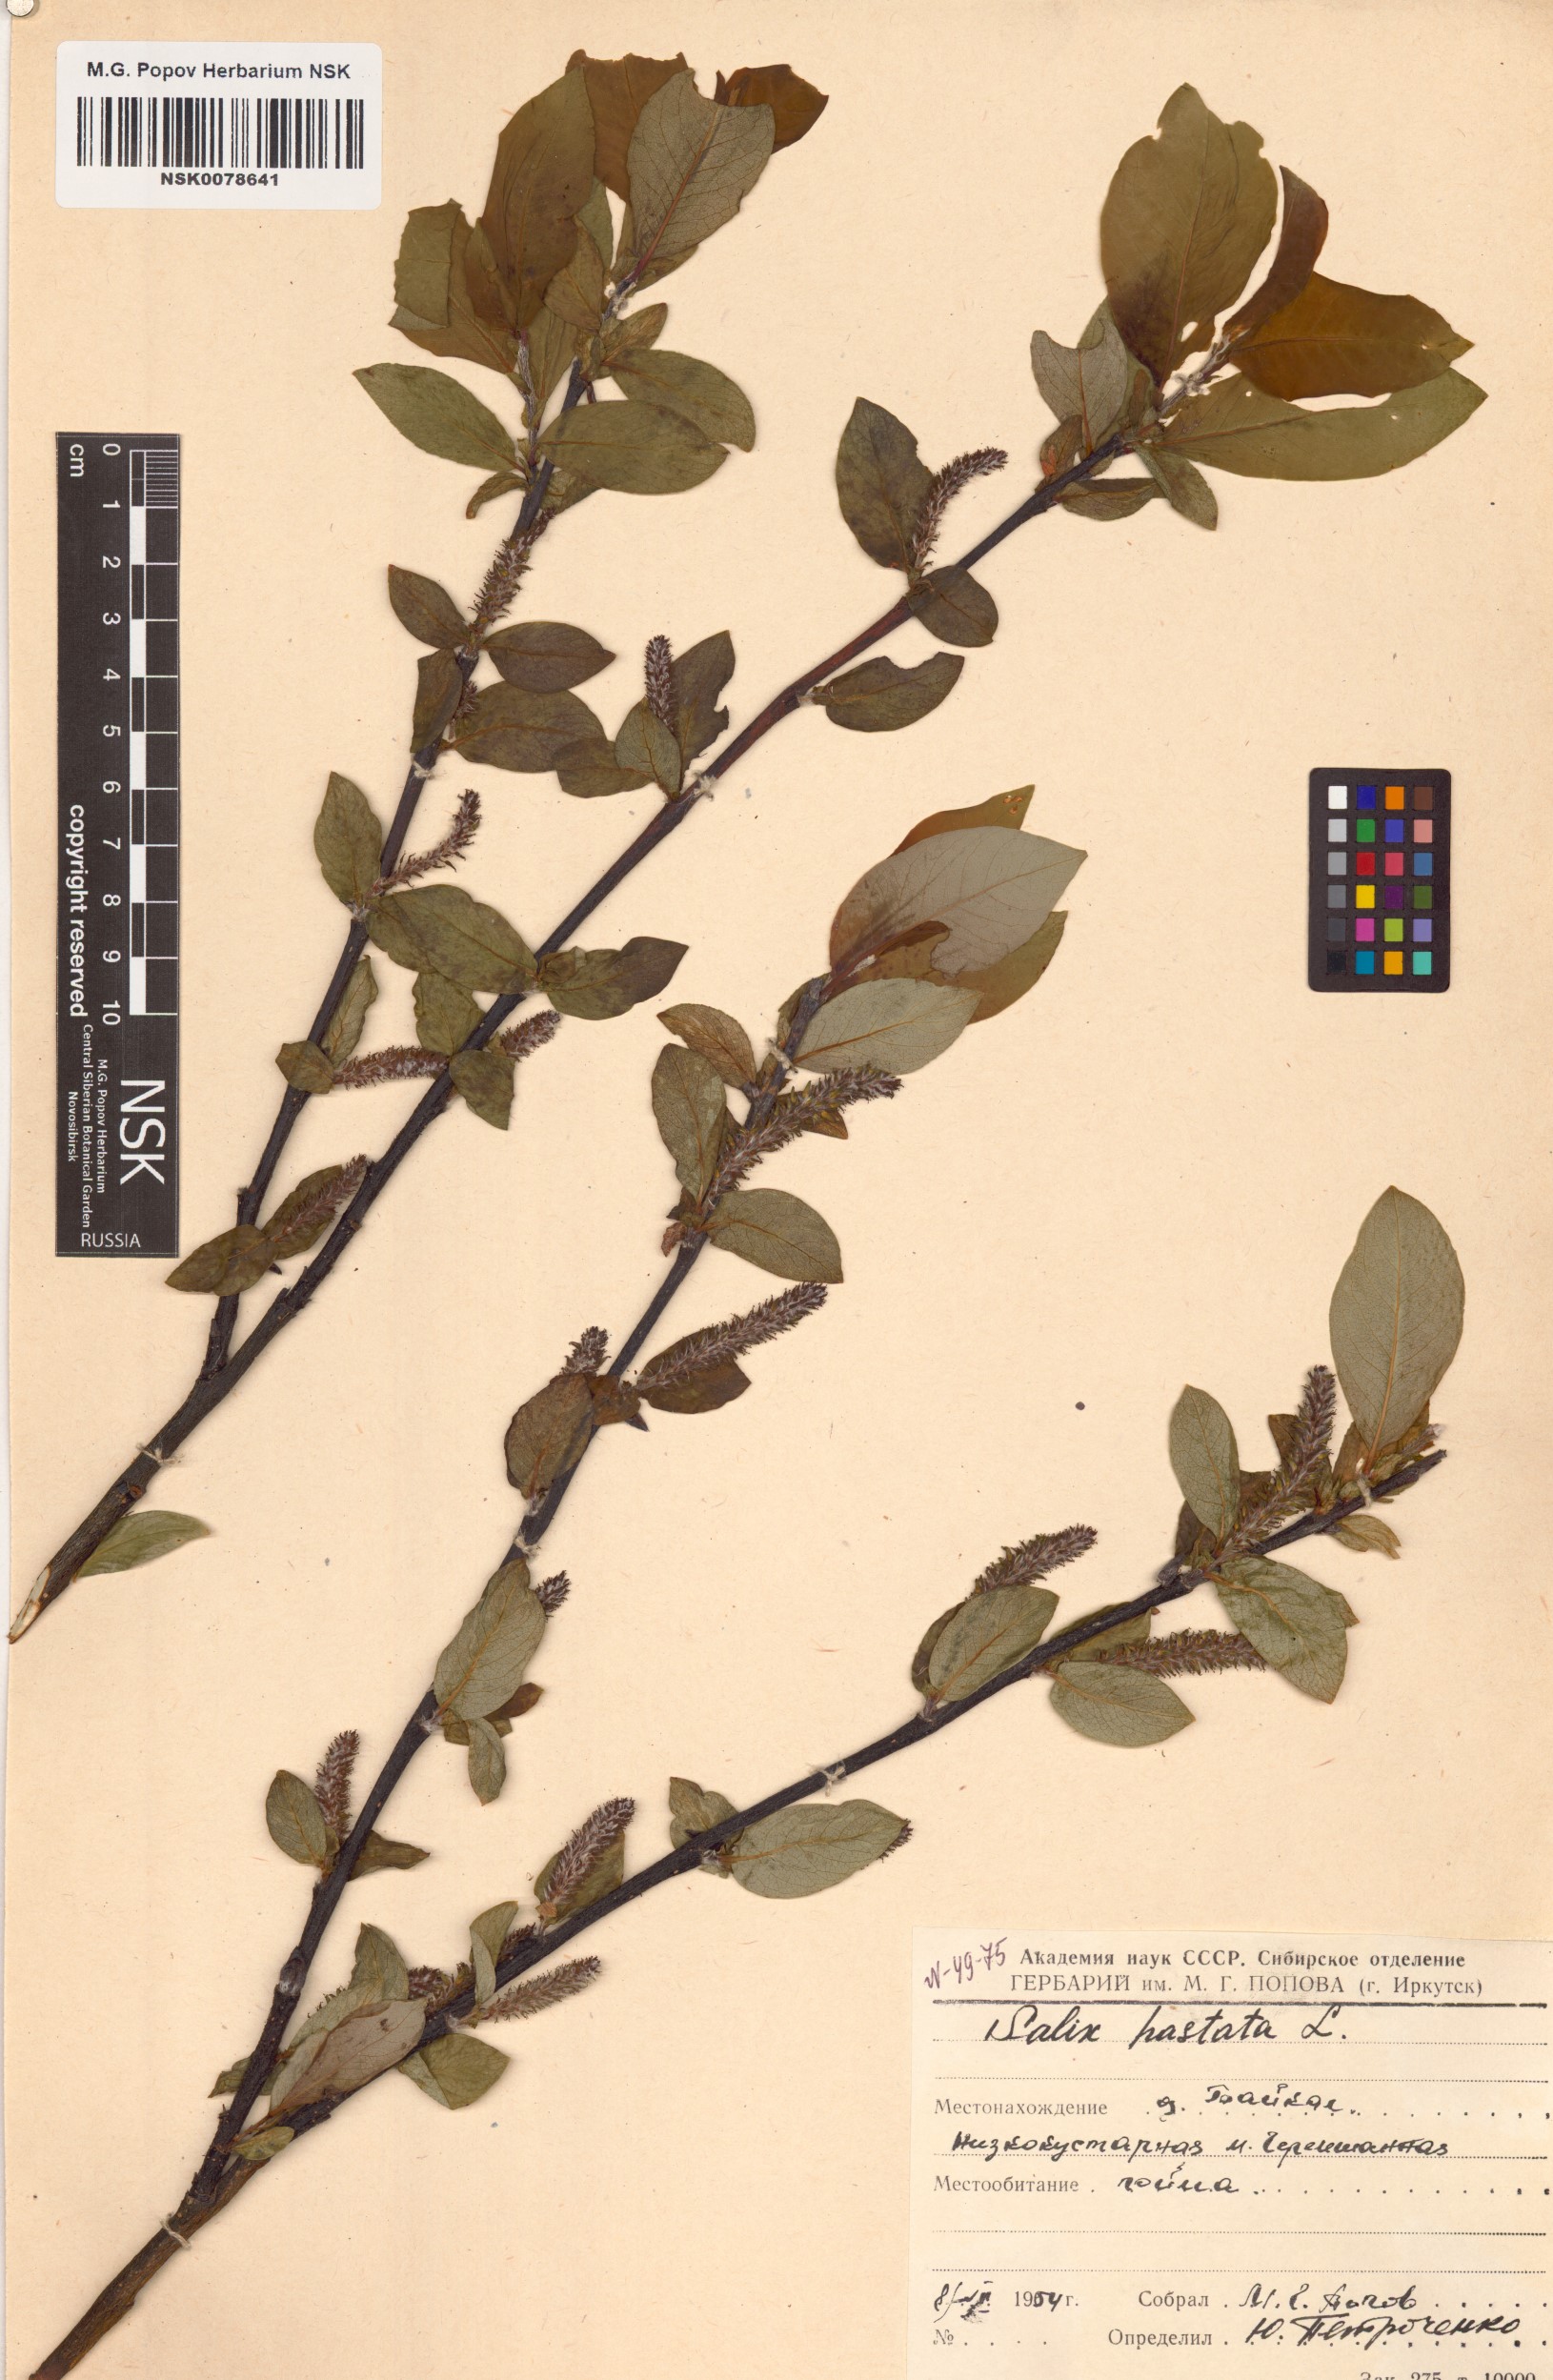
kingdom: Plantae
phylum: Tracheophyta
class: Magnoliopsida
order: Malpighiales
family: Salicaceae
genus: Salix
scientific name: Salix hastata
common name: Halberd willow
